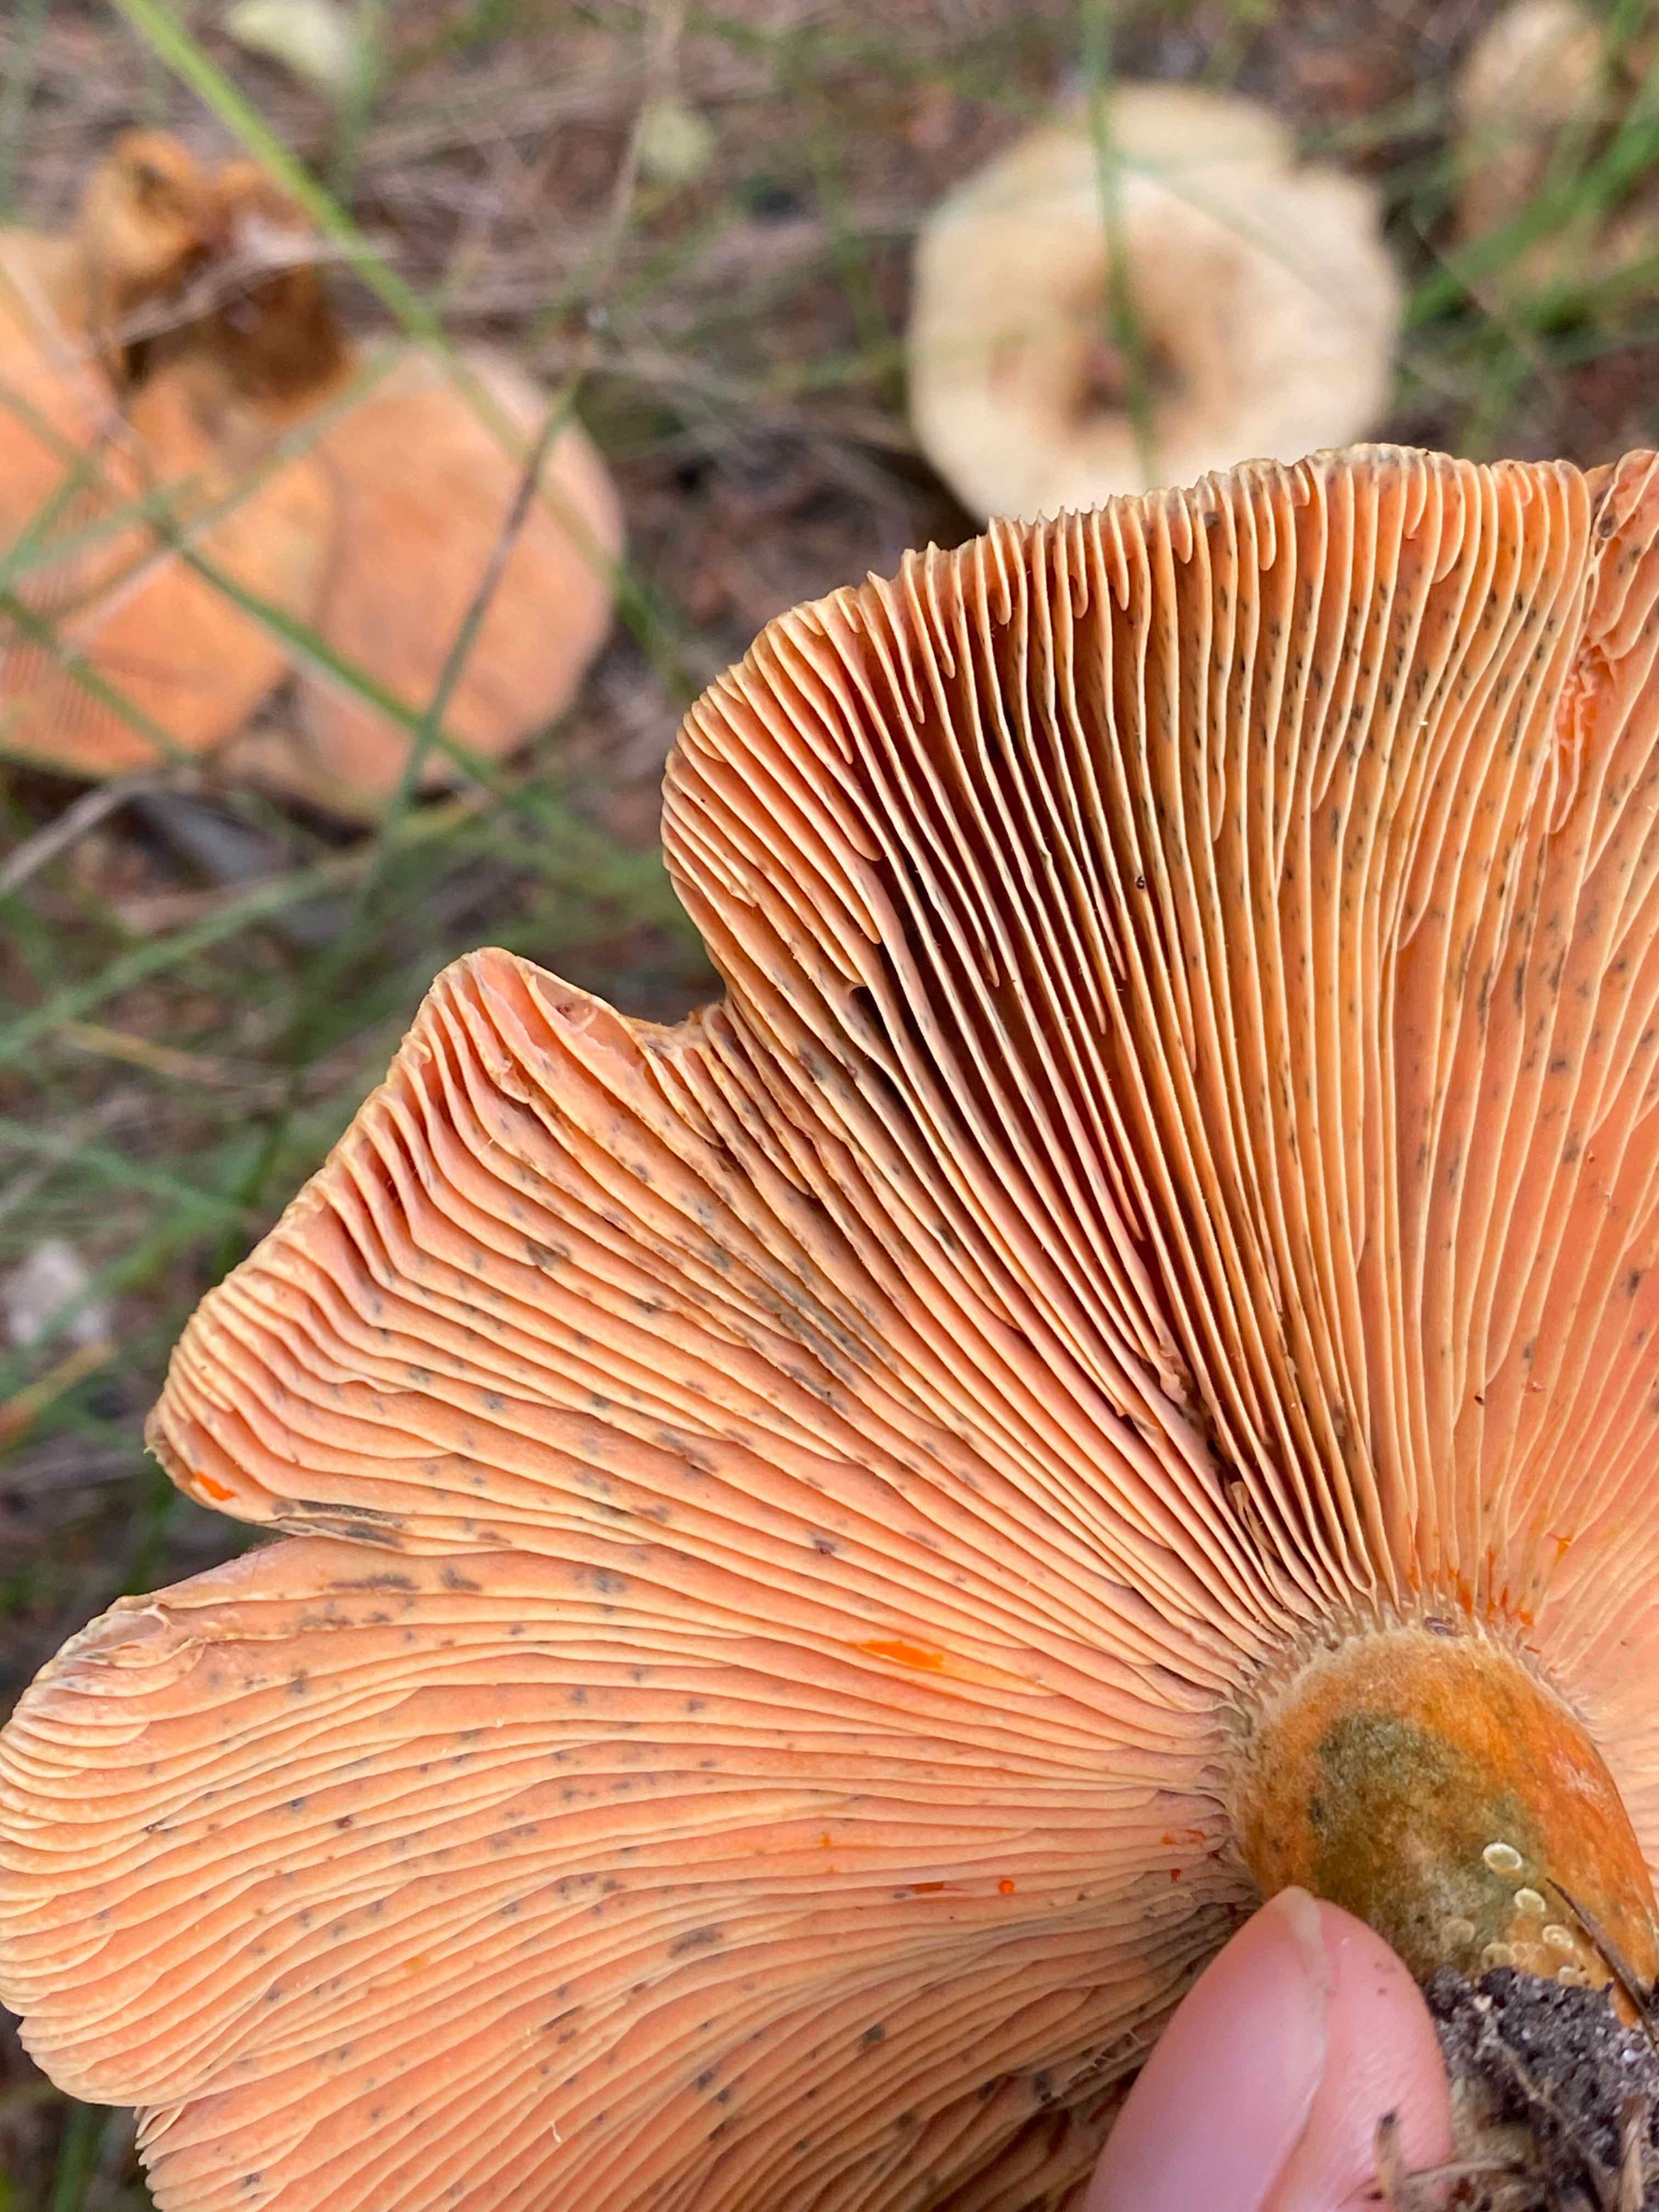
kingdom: Fungi
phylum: Basidiomycota
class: Agaricomycetes
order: Russulales
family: Russulaceae
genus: Lactarius
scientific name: Lactarius deterrimus
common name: gran-mælkehat
